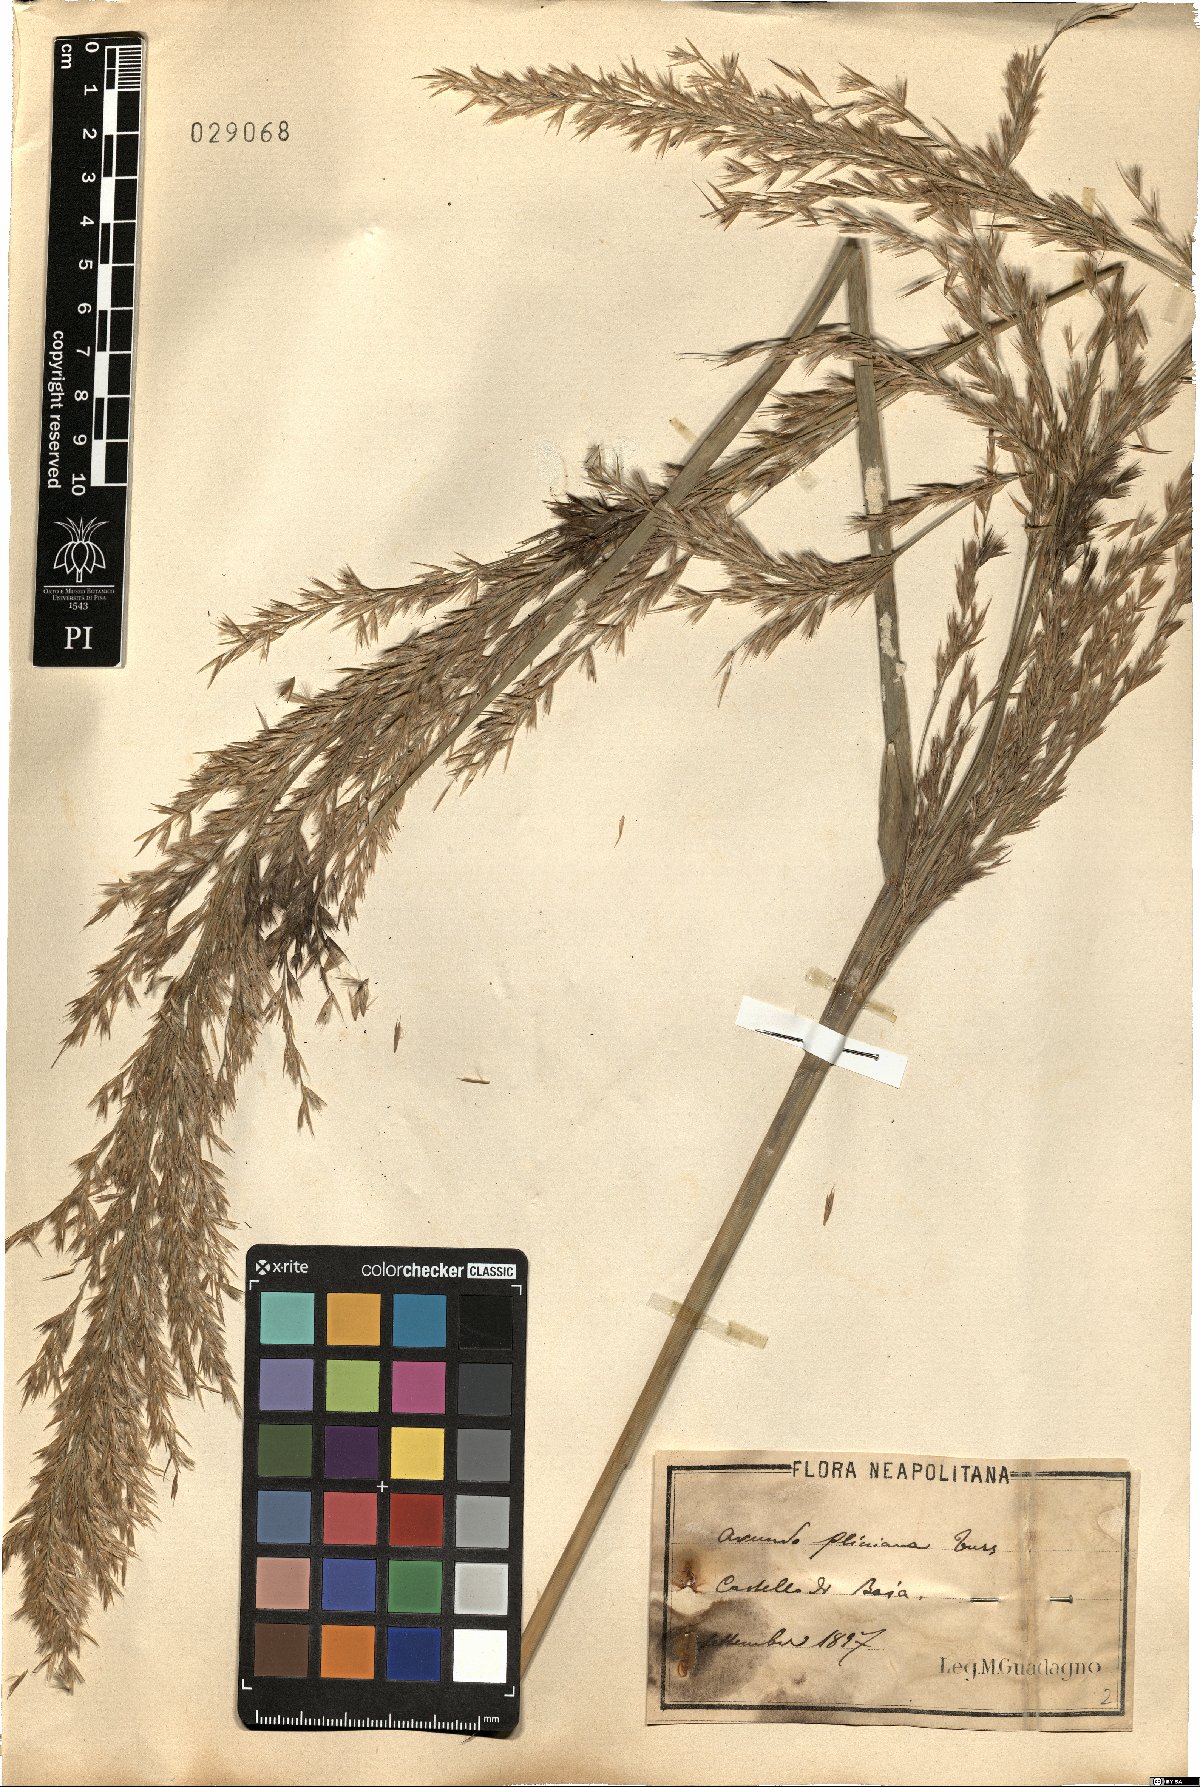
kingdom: Plantae
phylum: Tracheophyta
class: Liliopsida
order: Poales
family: Poaceae
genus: Arundo
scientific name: Arundo plinii
